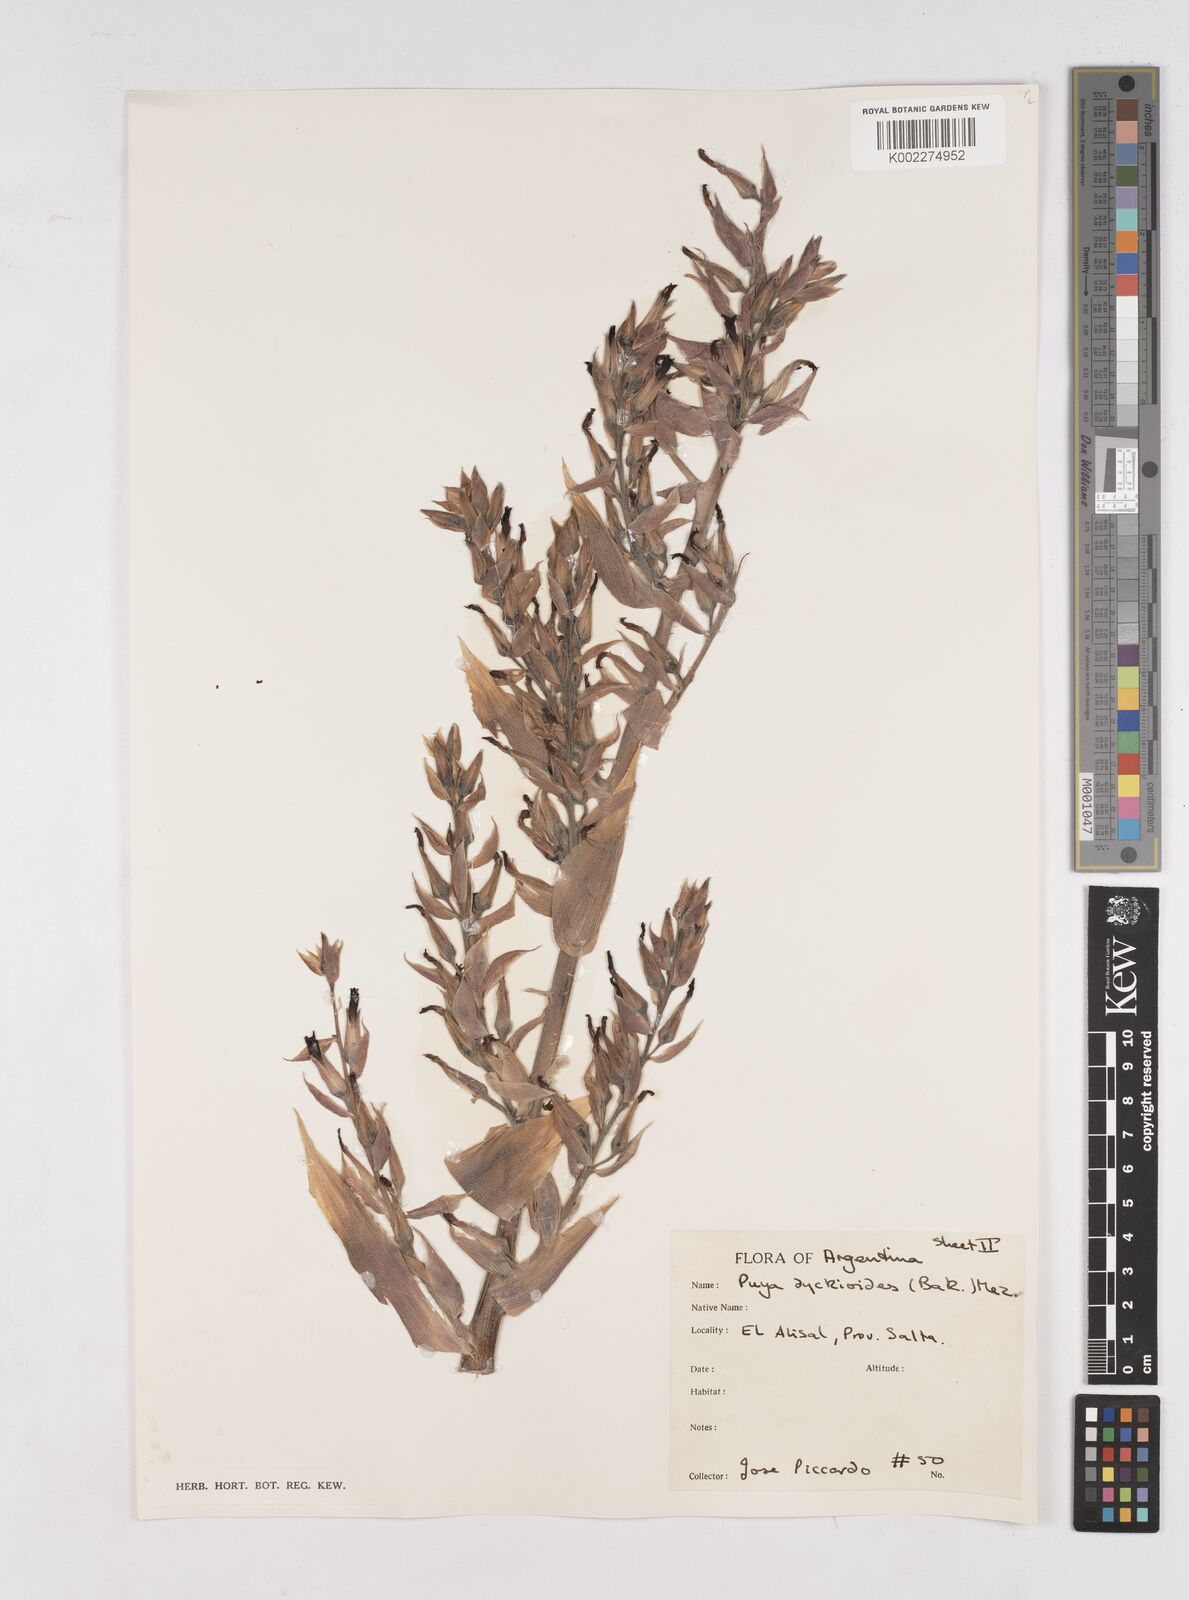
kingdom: Plantae
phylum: Tracheophyta
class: Liliopsida
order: Poales
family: Bromeliaceae
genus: Puya
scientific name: Puya dyckioides
